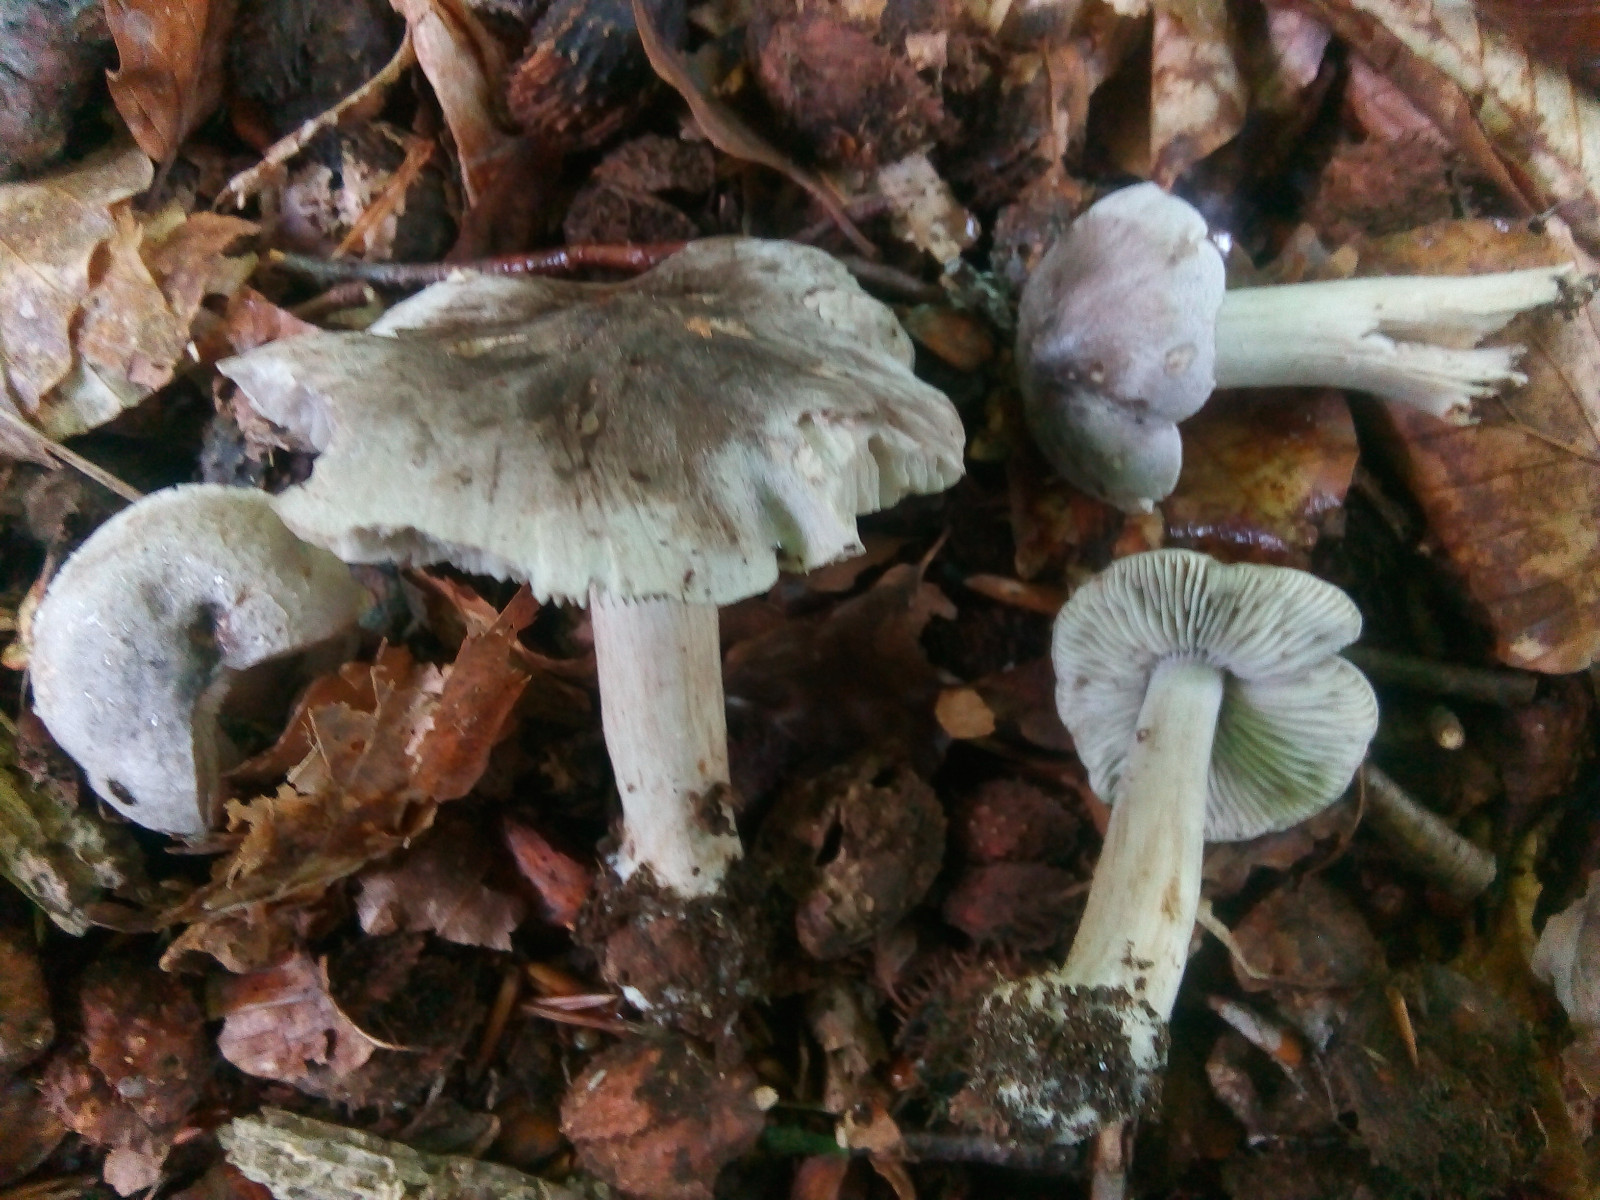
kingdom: Fungi
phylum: Basidiomycota
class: Agaricomycetes
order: Agaricales
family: Tricholomataceae
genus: Tricholoma
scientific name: Tricholoma sciodes
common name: stribet ridderhat
